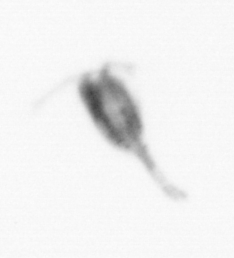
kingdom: Animalia
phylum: Arthropoda
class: Copepoda
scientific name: Copepoda
